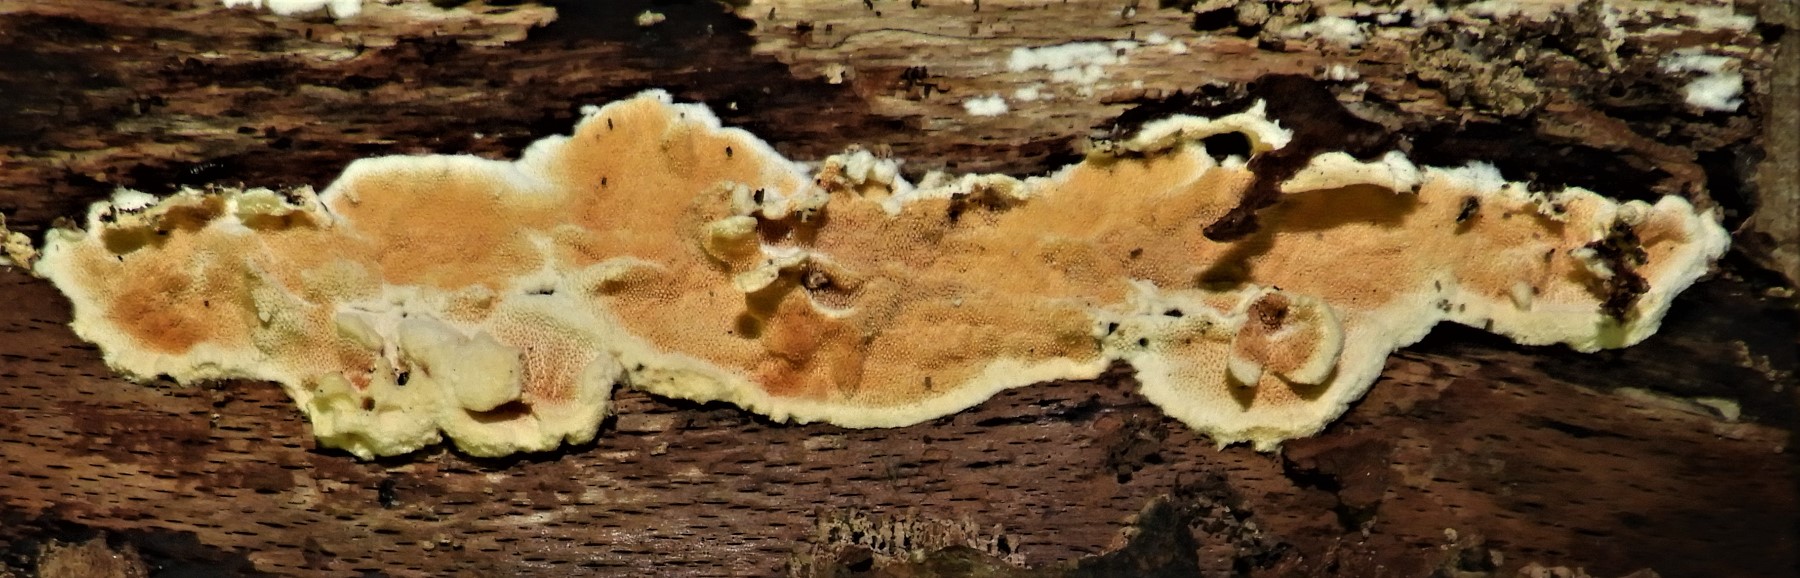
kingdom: Fungi
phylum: Basidiomycota
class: Agaricomycetes
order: Polyporales
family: Steccherinaceae
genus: Steccherinum
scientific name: Steccherinum ochraceum
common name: almindelig skønpig
